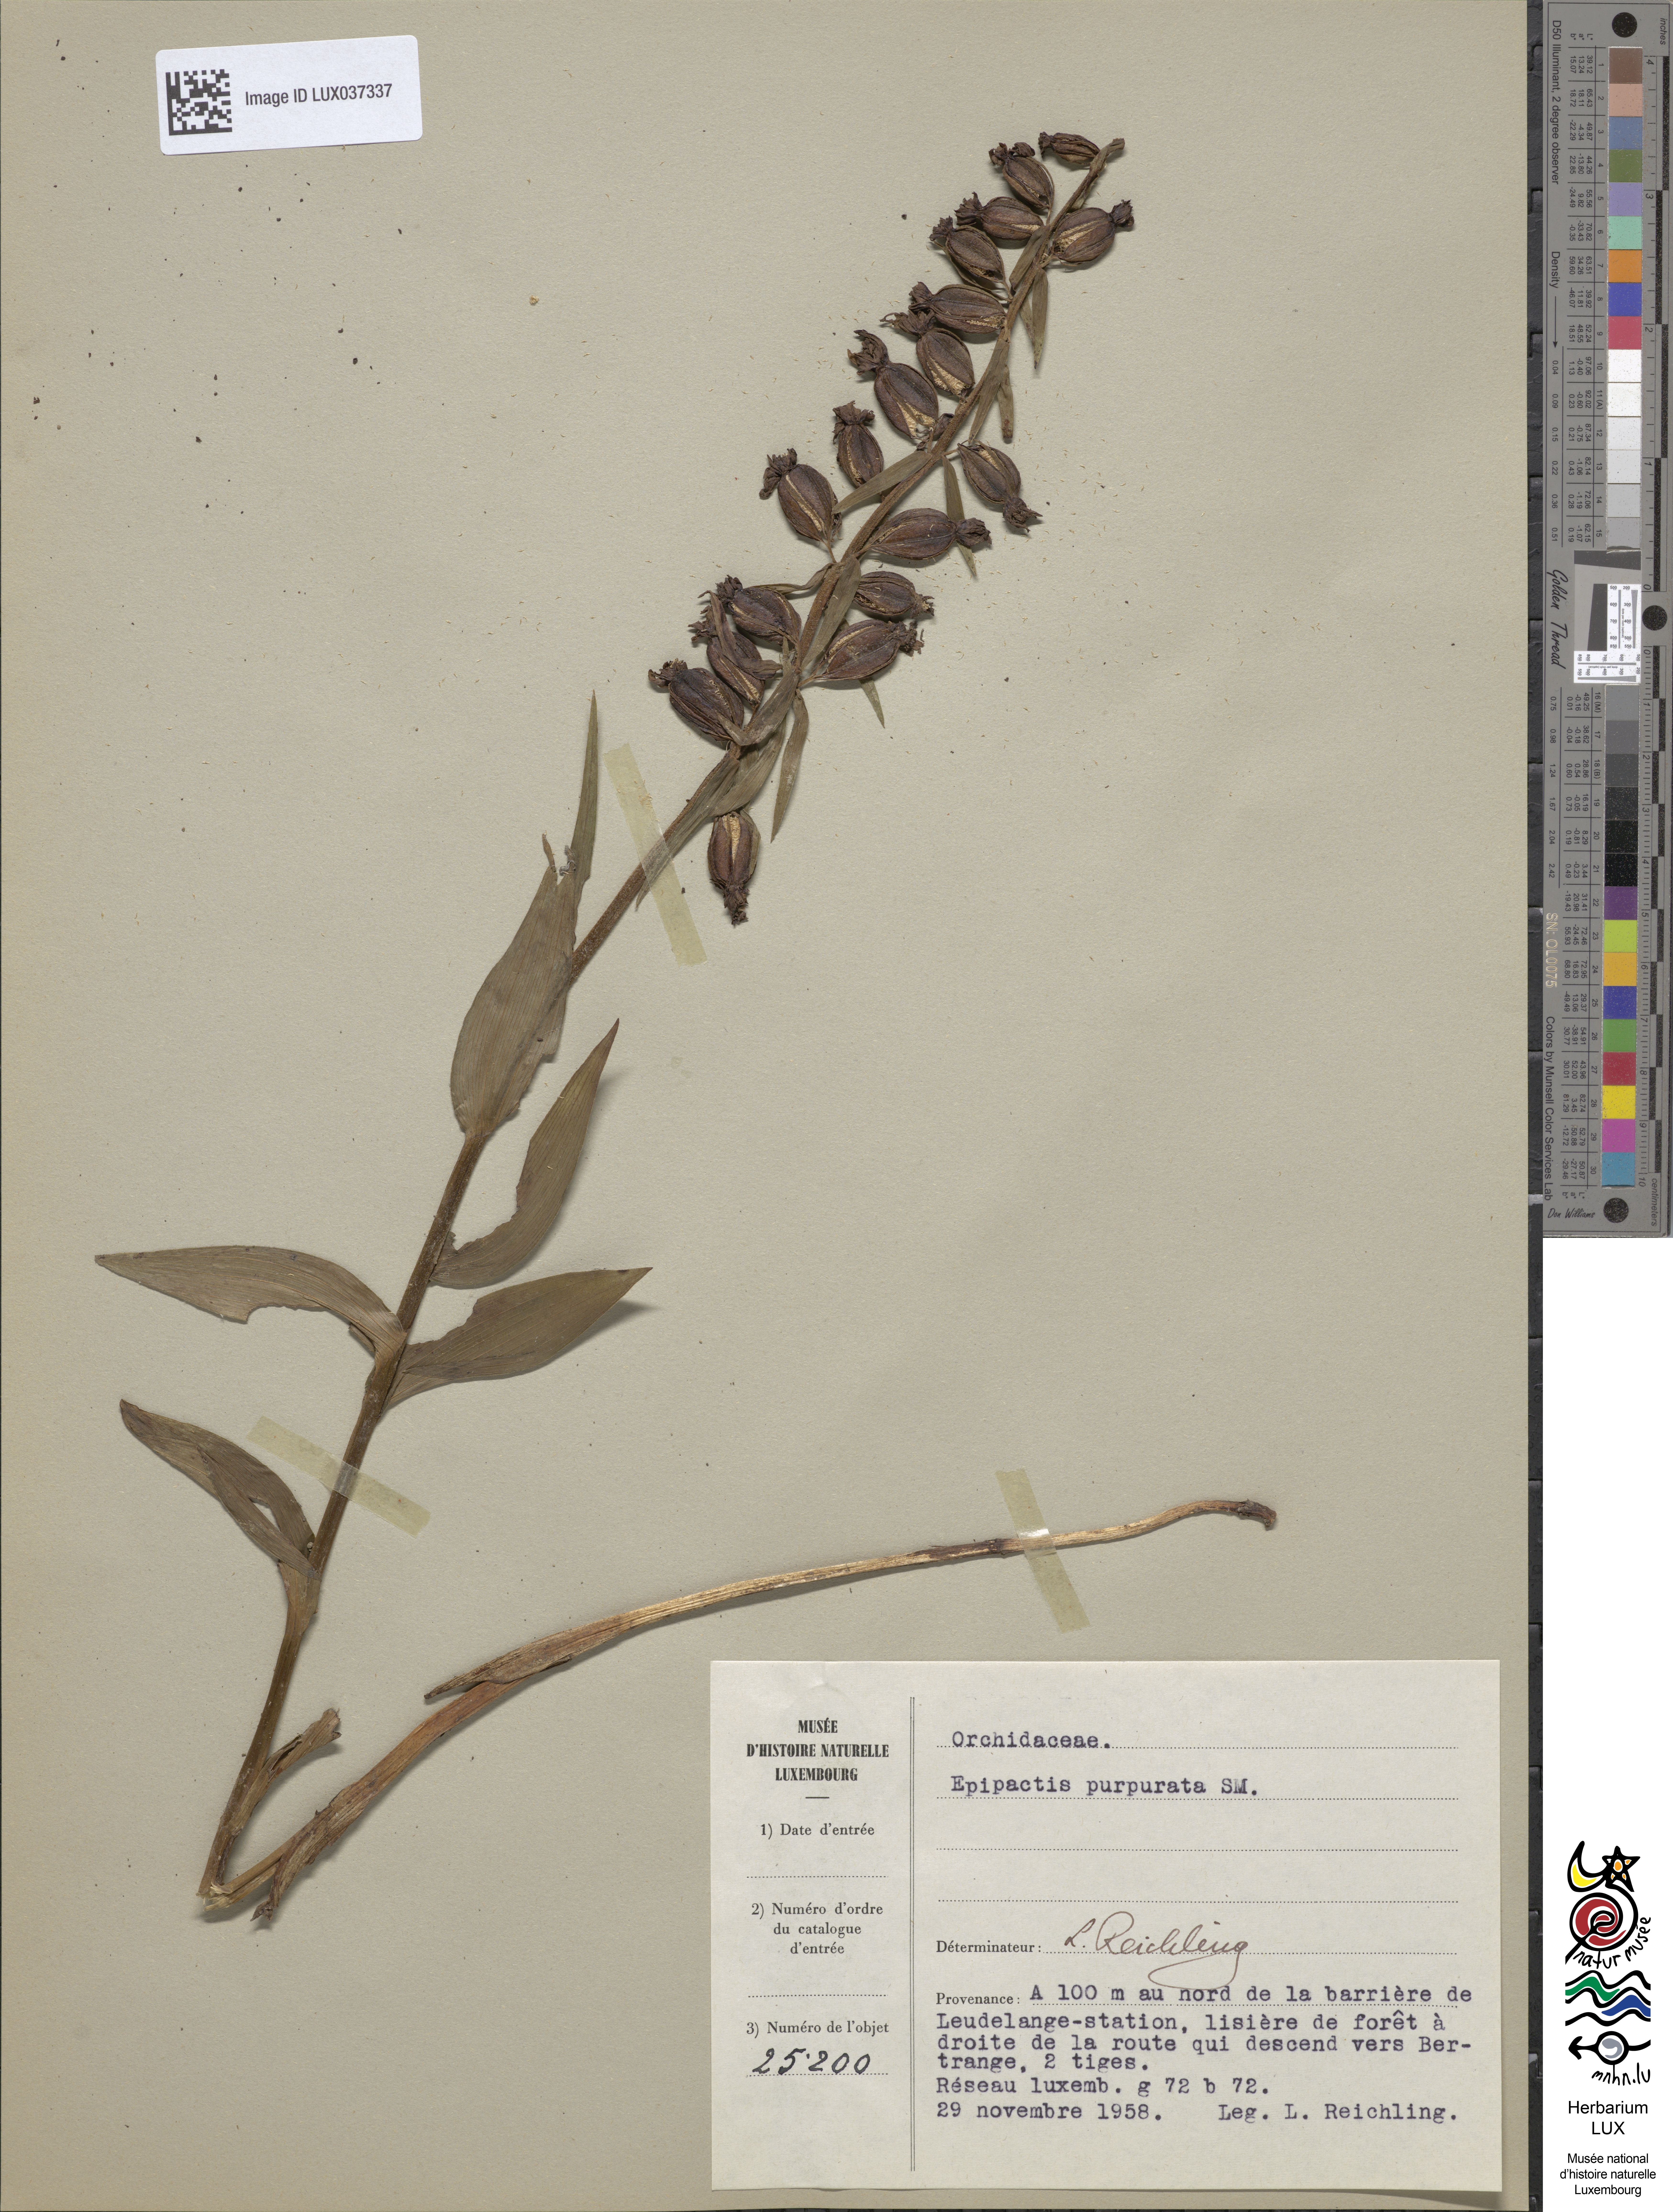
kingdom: Plantae
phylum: Tracheophyta
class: Liliopsida
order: Asparagales
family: Orchidaceae
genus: Epipactis
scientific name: Epipactis purpurata
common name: Violet helleborine
